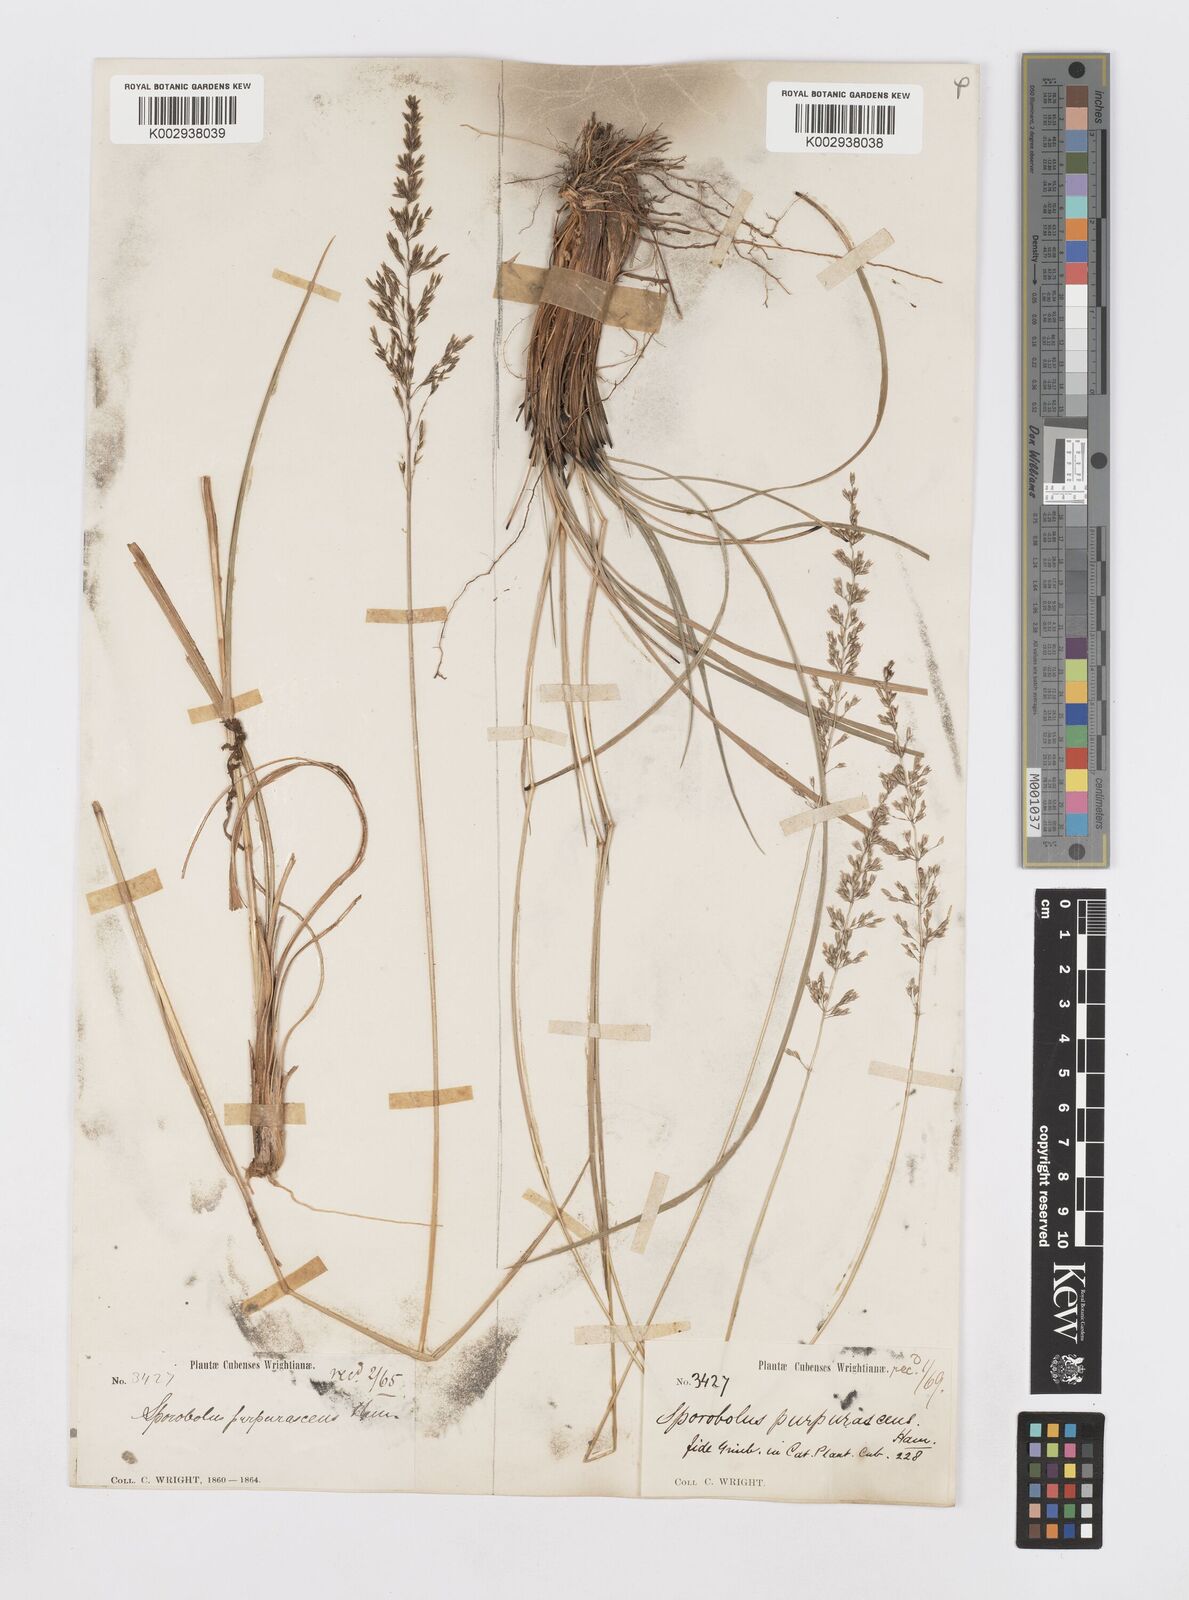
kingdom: Plantae
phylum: Tracheophyta
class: Liliopsida
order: Poales
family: Poaceae
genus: Sporobolus
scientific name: Sporobolus purpurascens
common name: Purple dropseed
